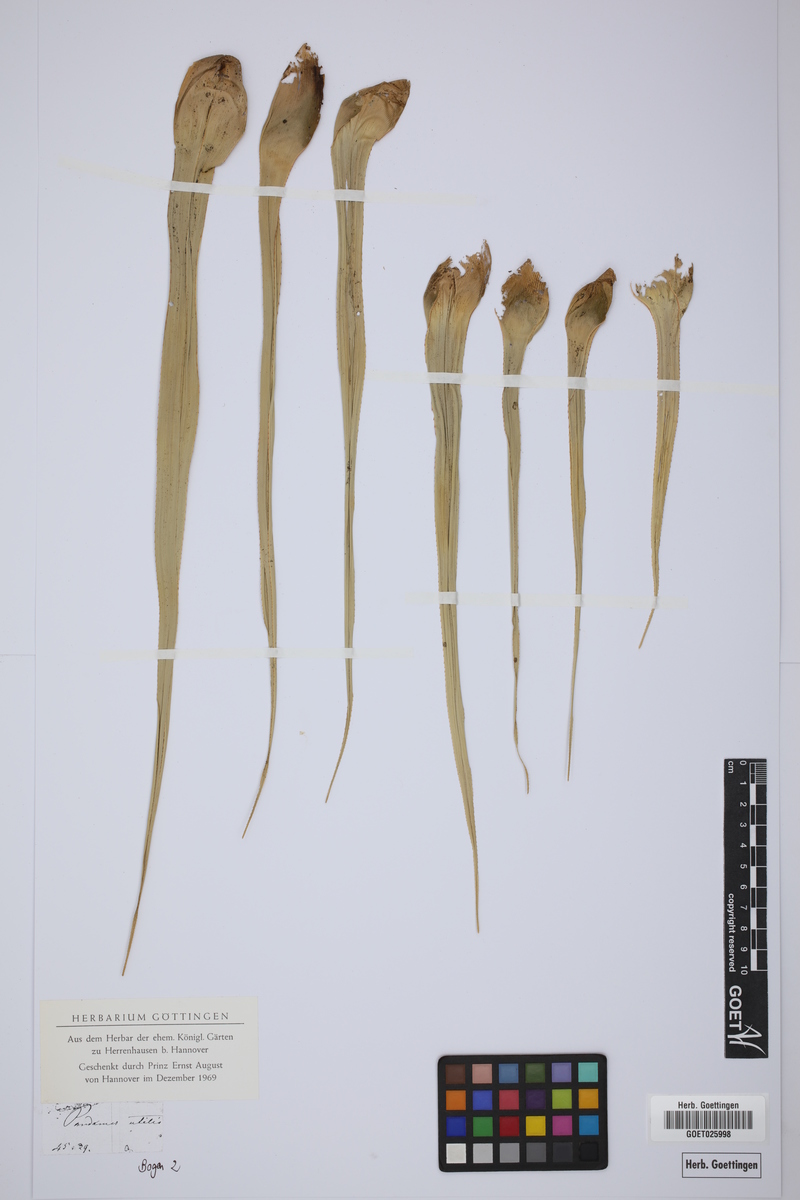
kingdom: Plantae
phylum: Tracheophyta
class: Liliopsida
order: Pandanales
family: Pandanaceae
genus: Pandanus
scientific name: Pandanus utilis
